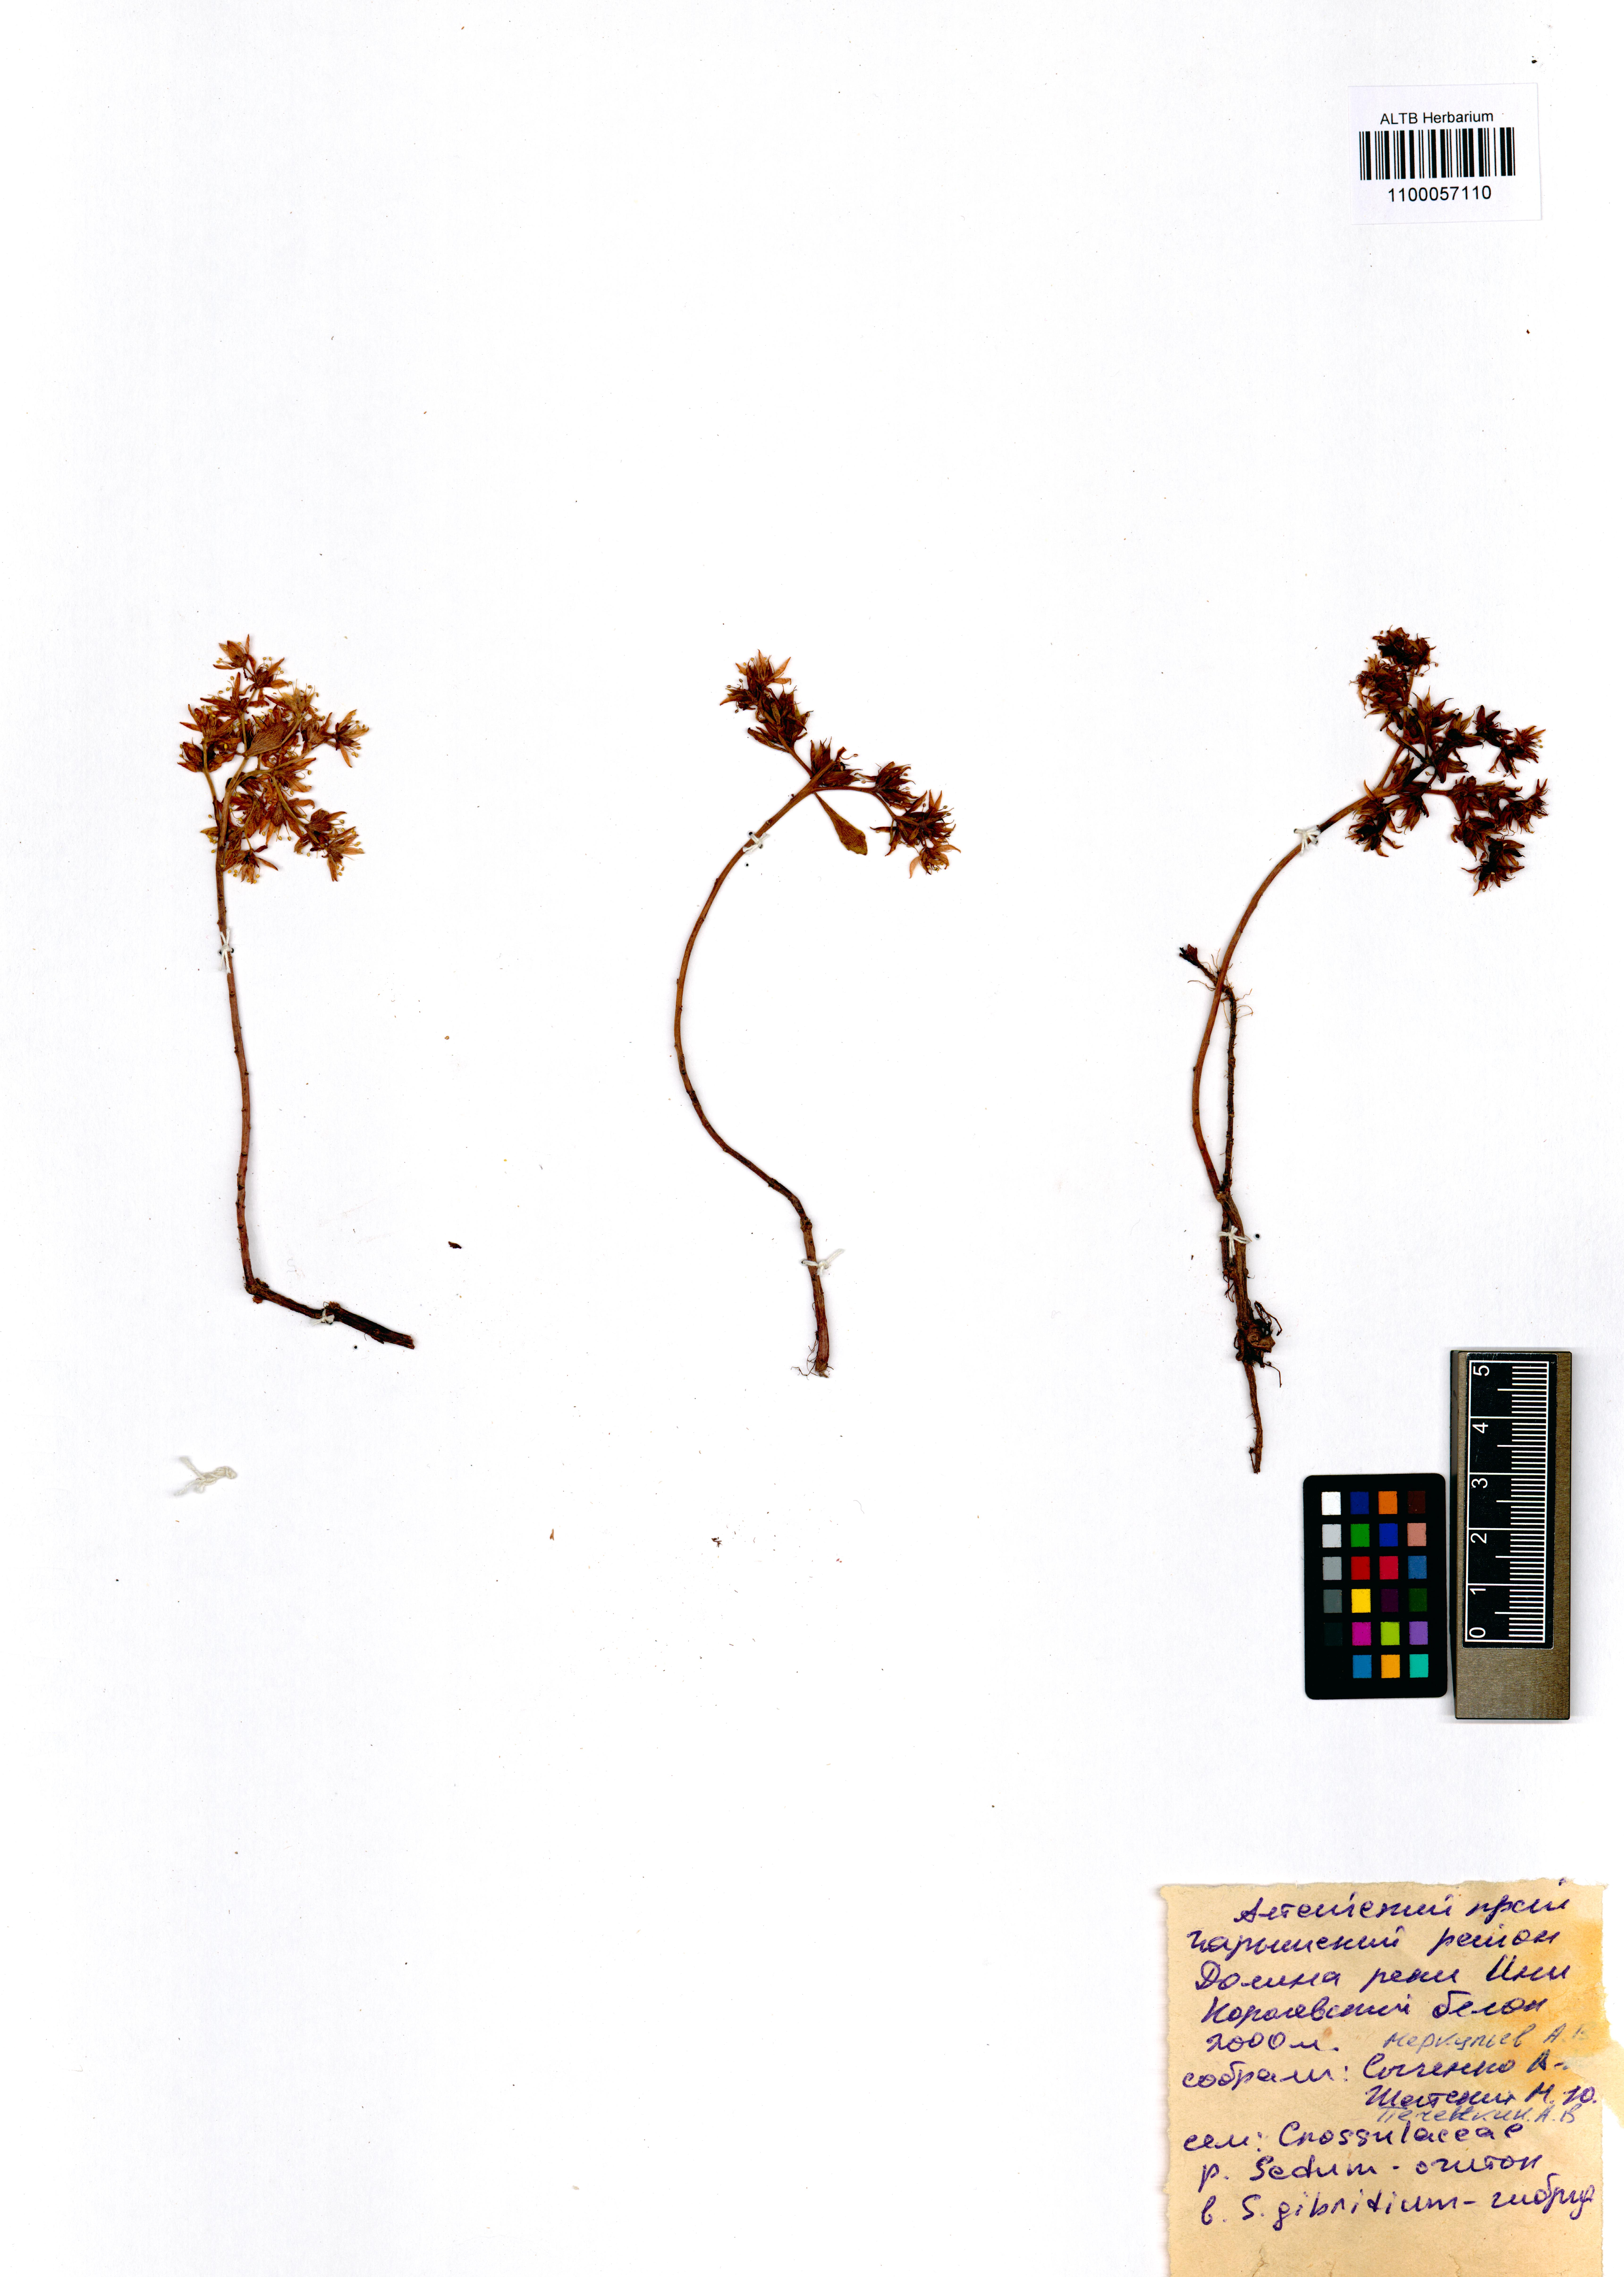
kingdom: Plantae
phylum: Tracheophyta
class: Magnoliopsida
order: Saxifragales
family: Crassulaceae
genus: Phedimus
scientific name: Phedimus hybridus
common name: Hybrid stonecrop
